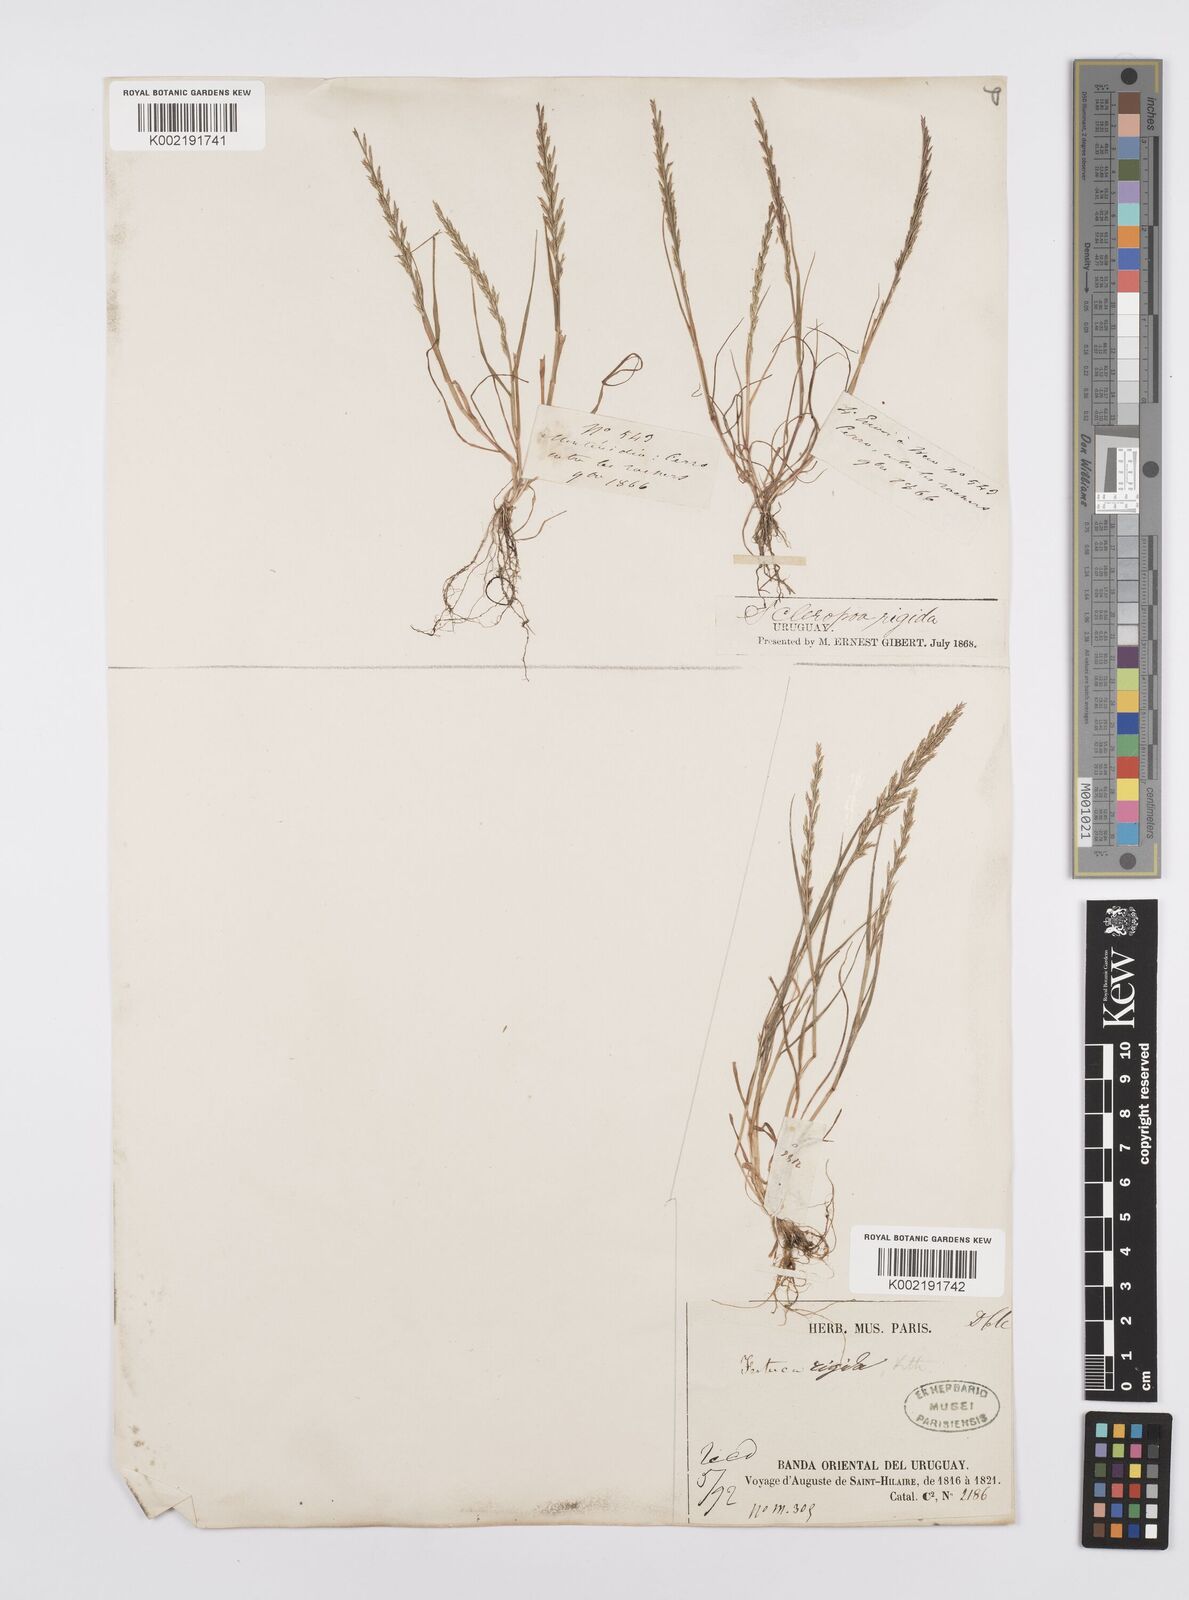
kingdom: Plantae
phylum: Tracheophyta
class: Liliopsida
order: Poales
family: Poaceae
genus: Catapodium
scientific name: Catapodium rigidum
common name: Fern-grass
